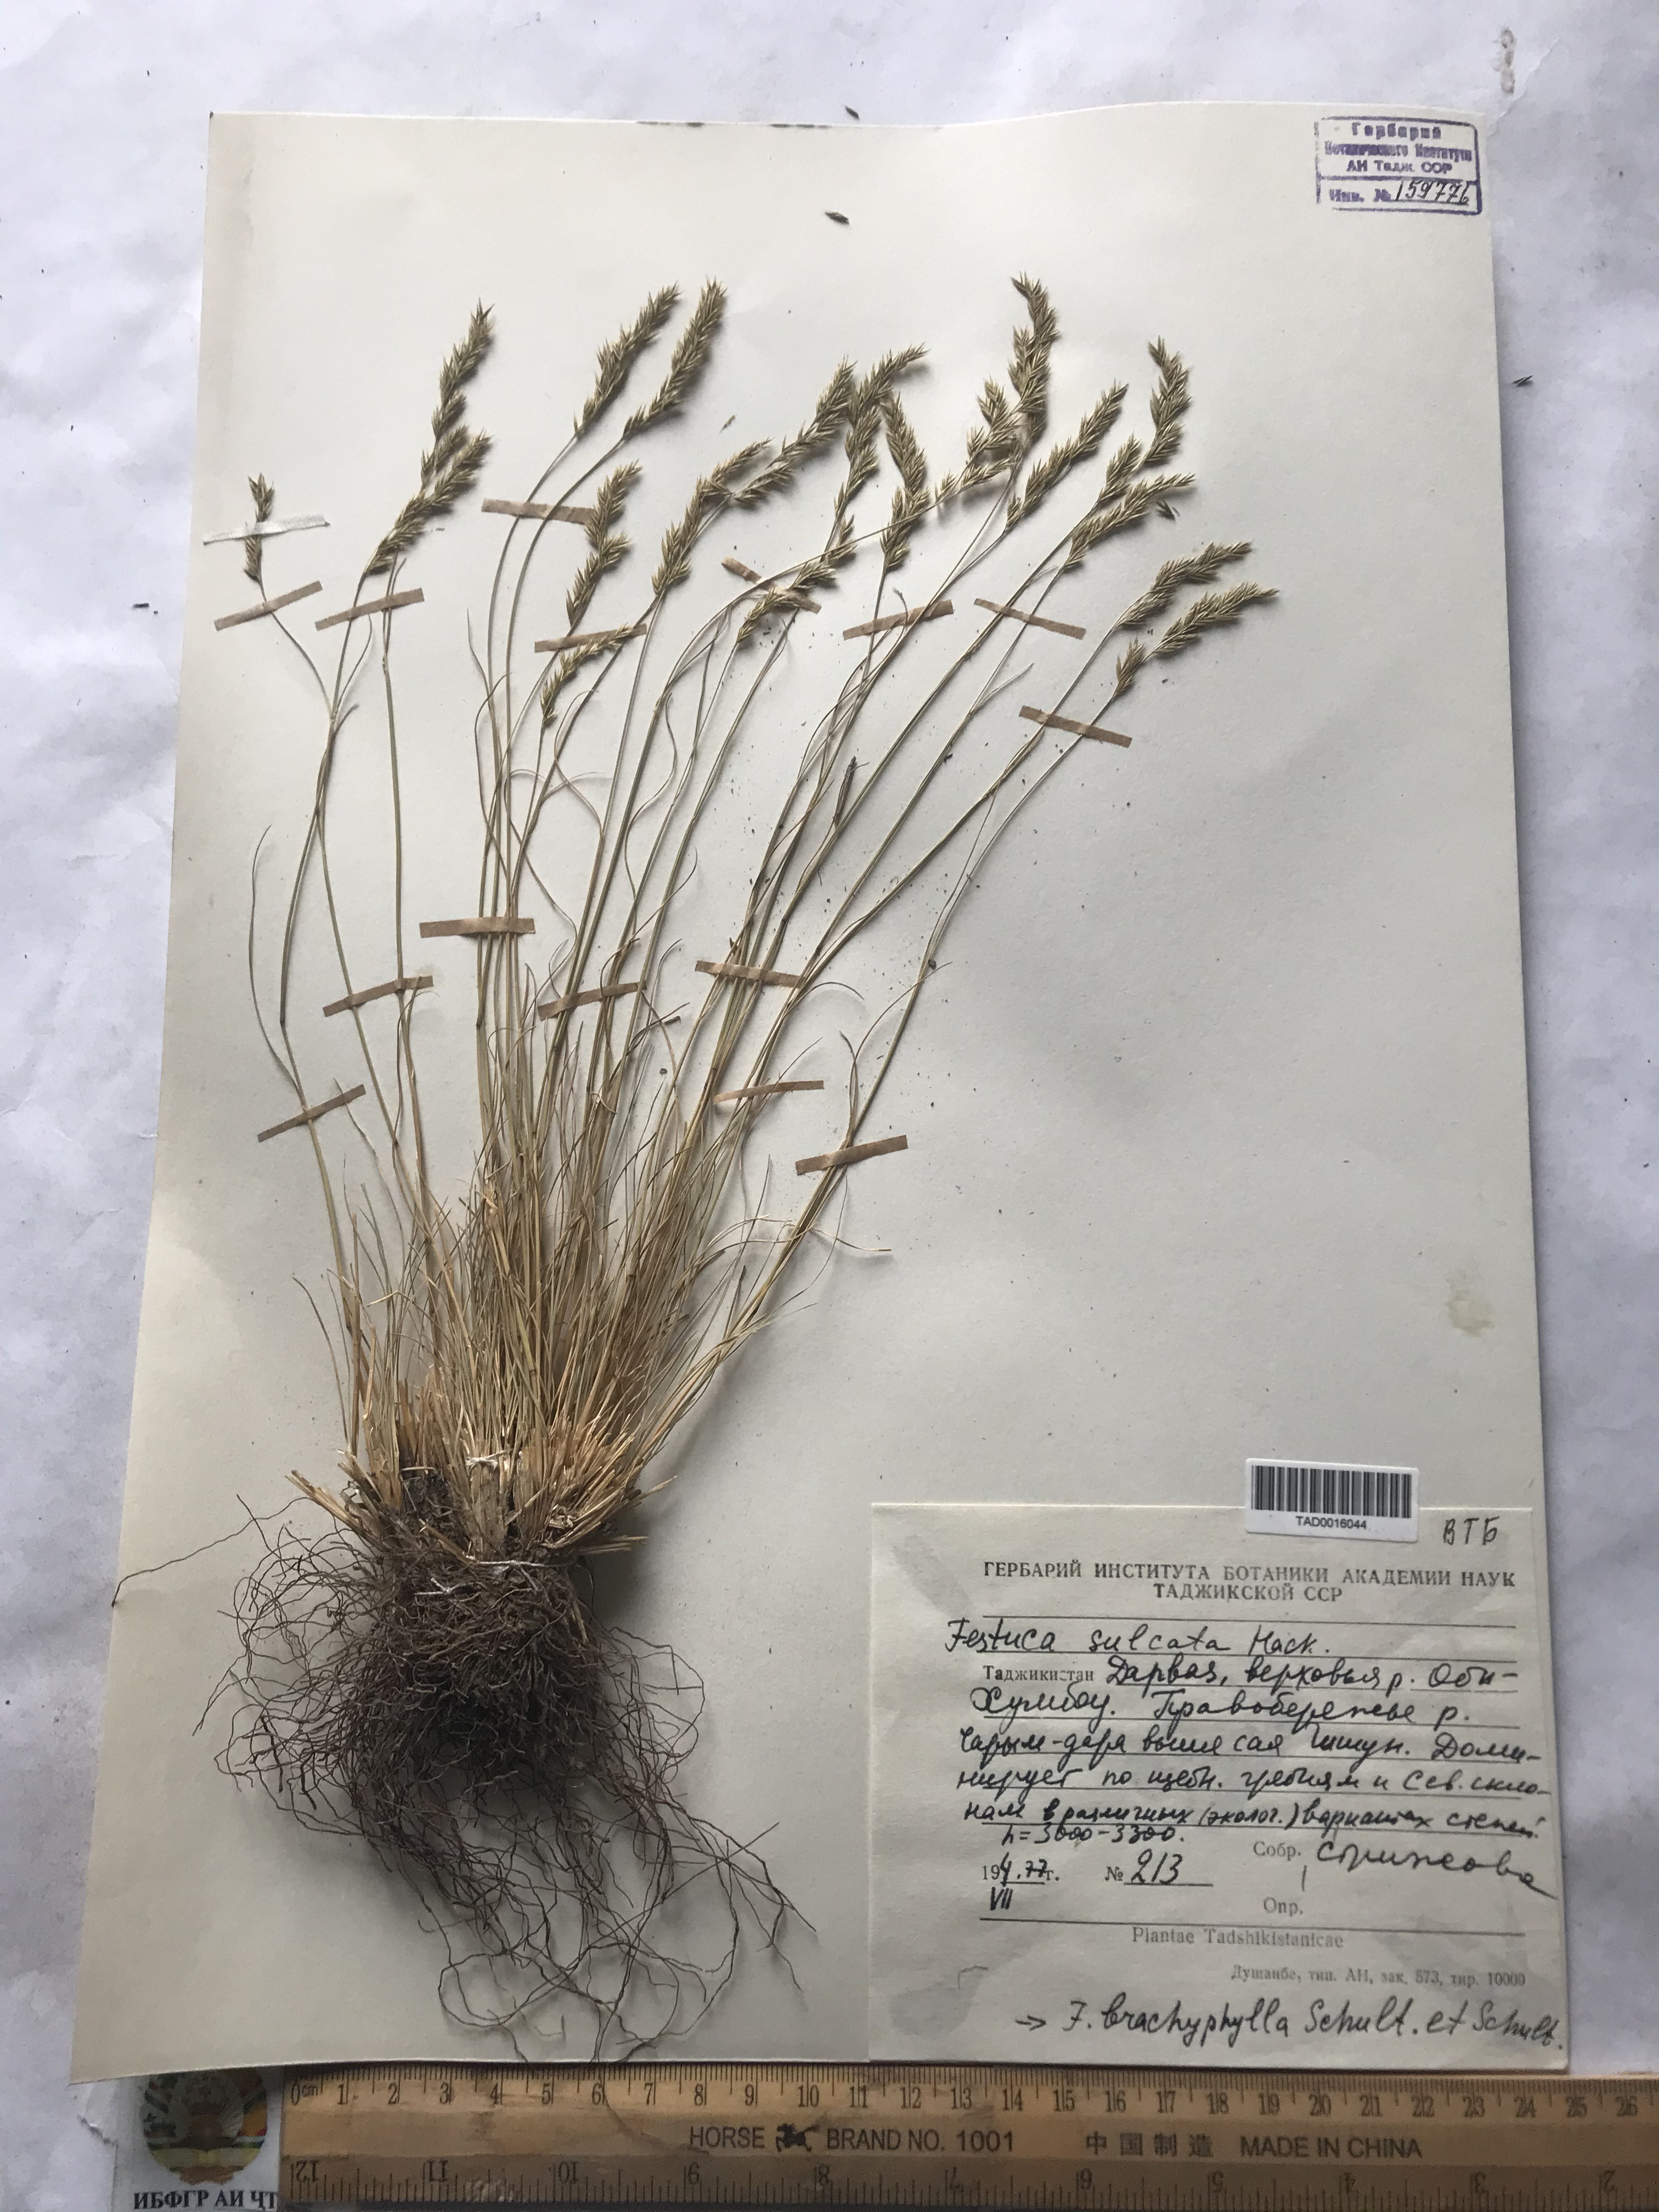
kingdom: Plantae
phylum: Tracheophyta
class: Liliopsida
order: Poales
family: Poaceae
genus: Festuca
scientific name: Festuca sulcata
